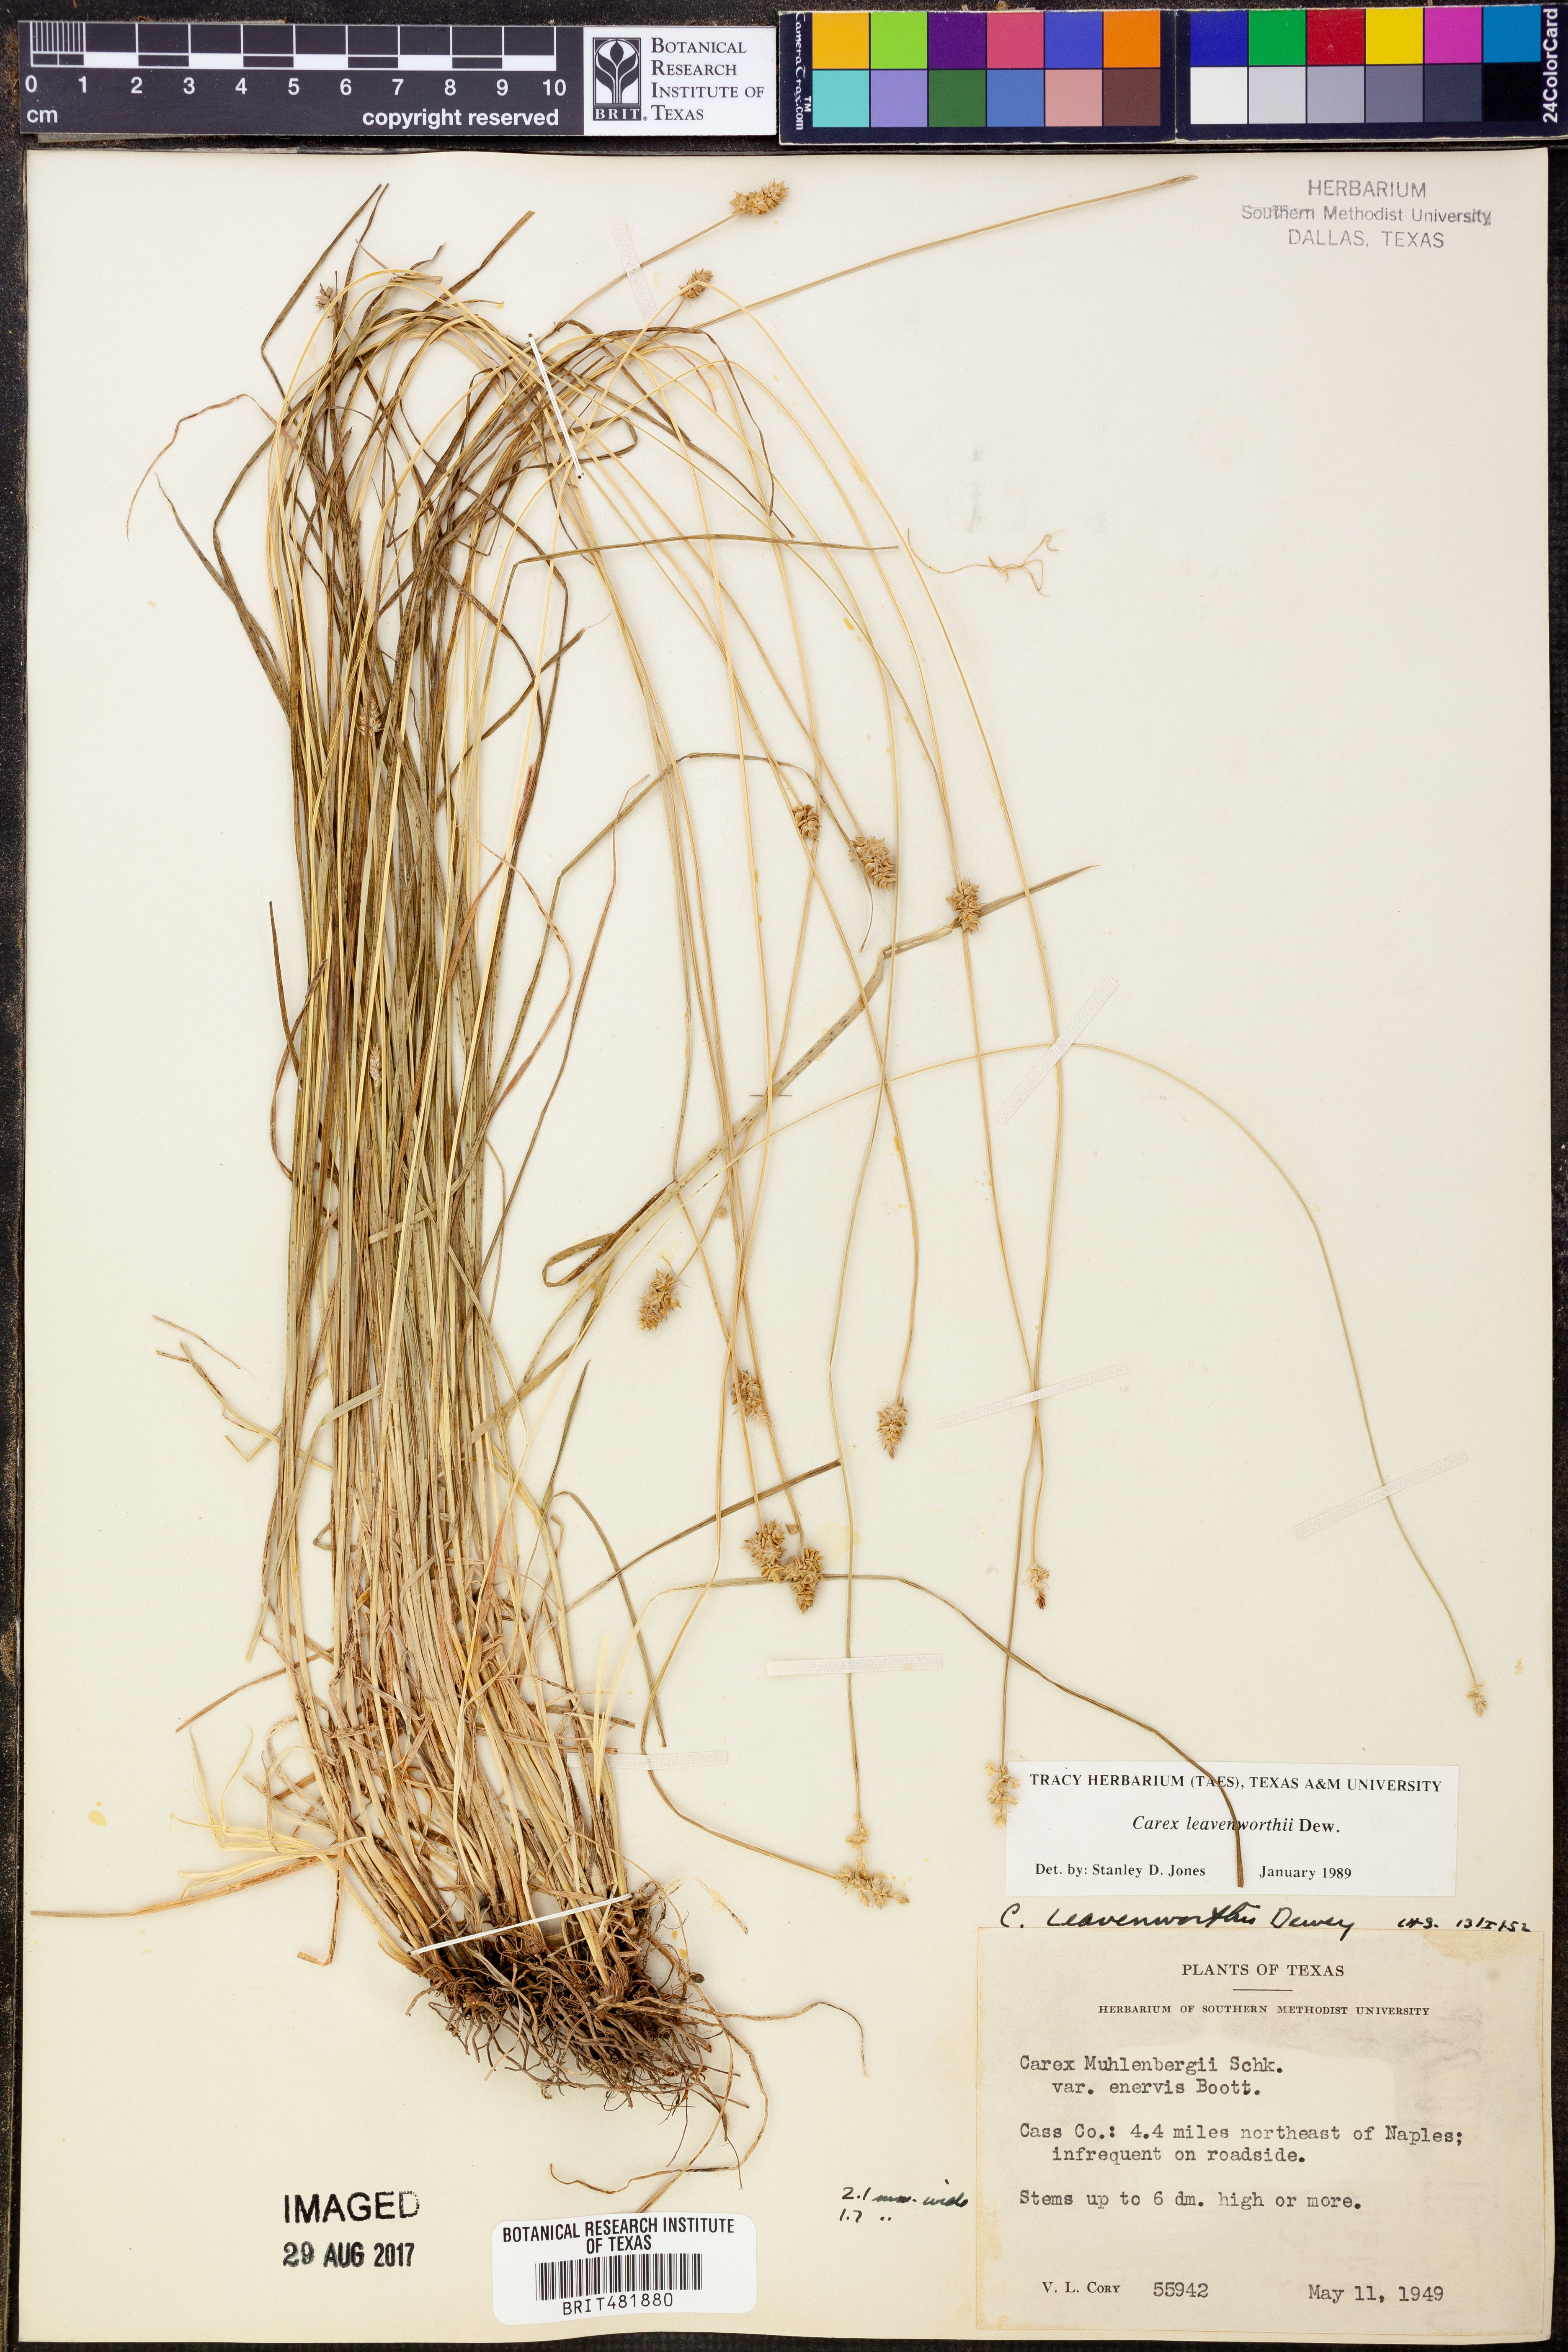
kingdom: Plantae
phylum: Tracheophyta
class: Liliopsida
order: Poales
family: Cyperaceae
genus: Carex
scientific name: Carex leavenworthii
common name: Leavenworth's bracted sedge
